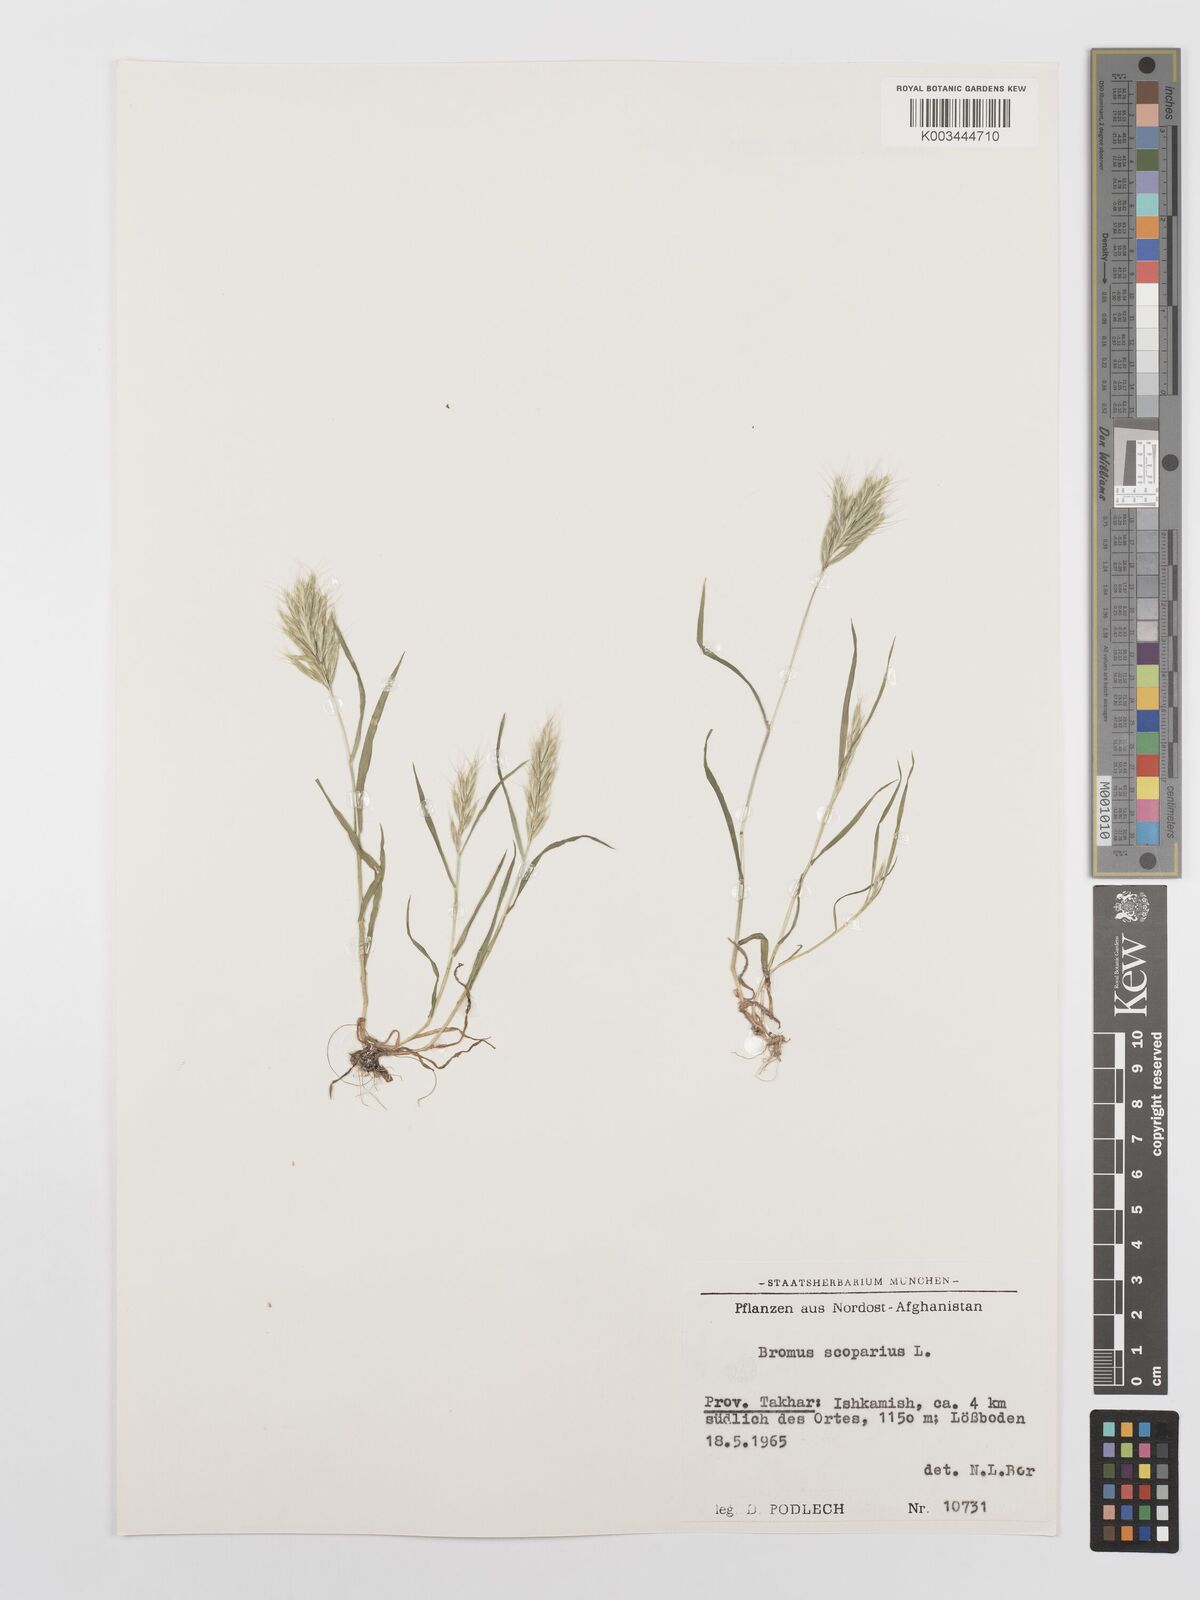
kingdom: Plantae
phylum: Tracheophyta
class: Liliopsida
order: Poales
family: Poaceae
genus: Bromus
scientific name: Bromus scoparius
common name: Broom brome
